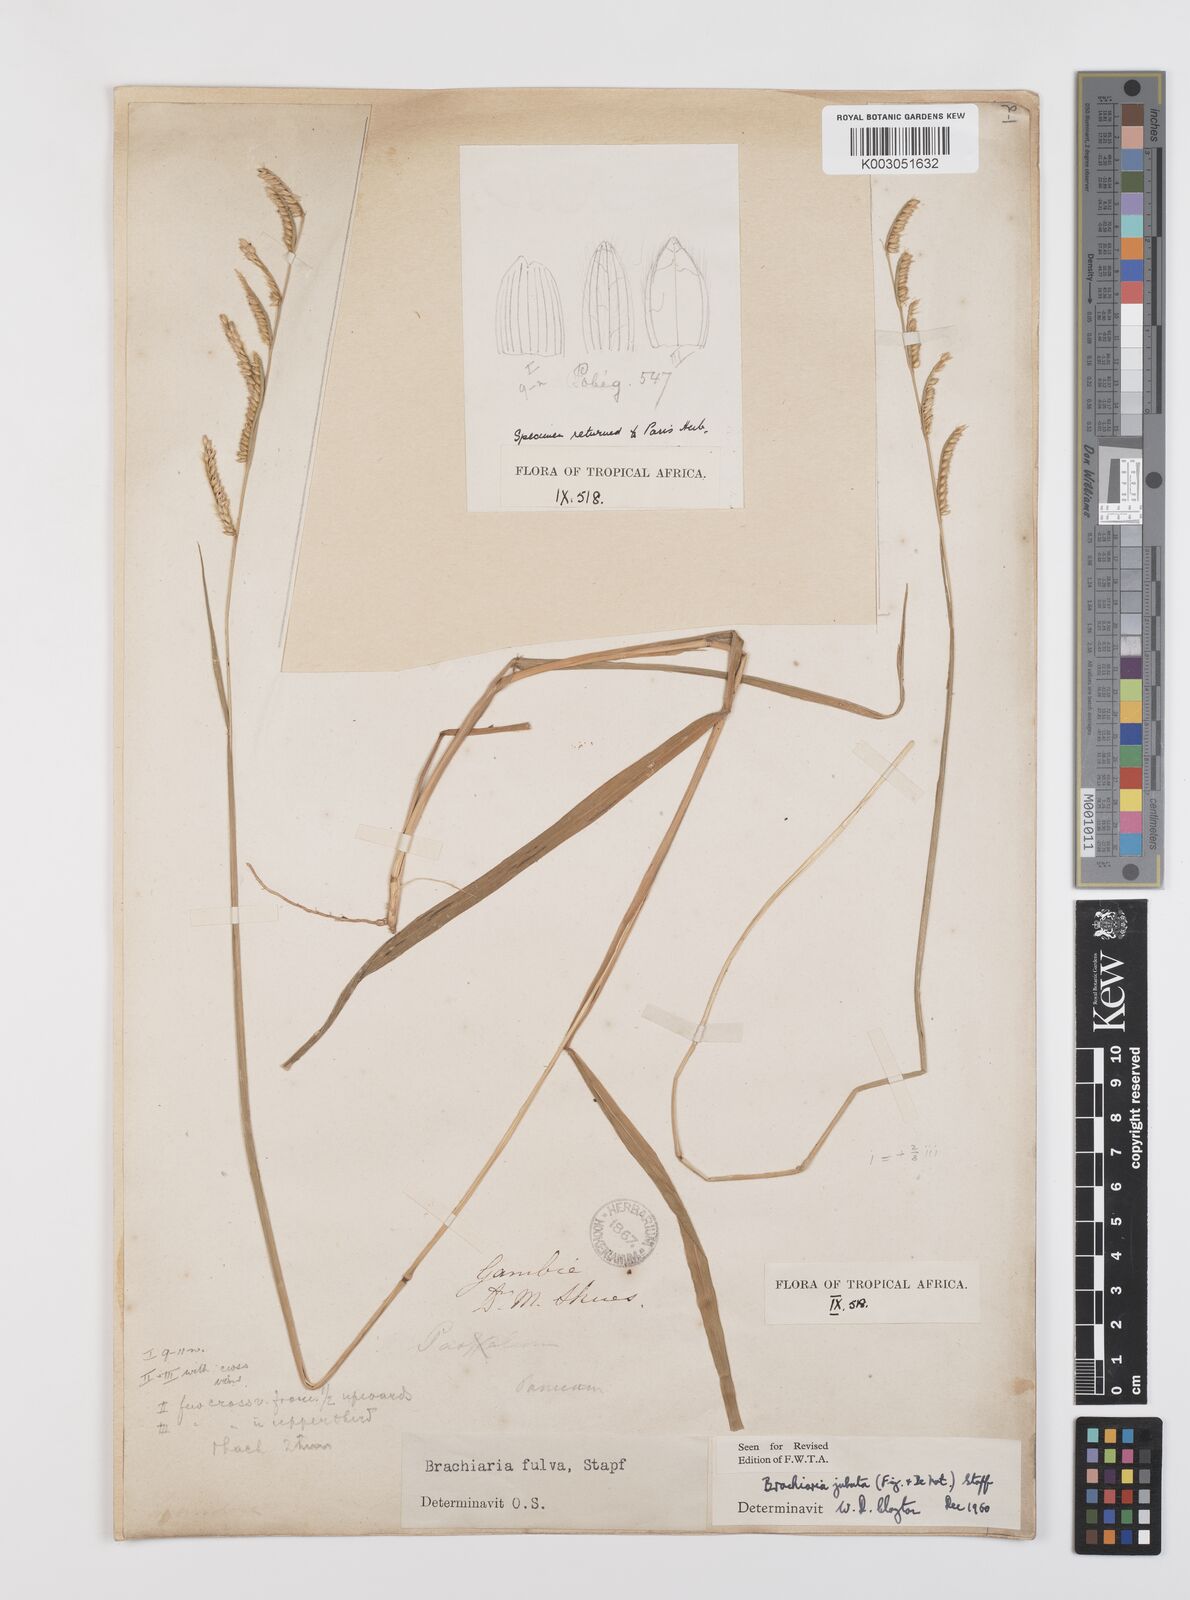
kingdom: Plantae
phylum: Tracheophyta
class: Liliopsida
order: Poales
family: Poaceae
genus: Urochloa
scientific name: Urochloa jubata
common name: Buffalograss
